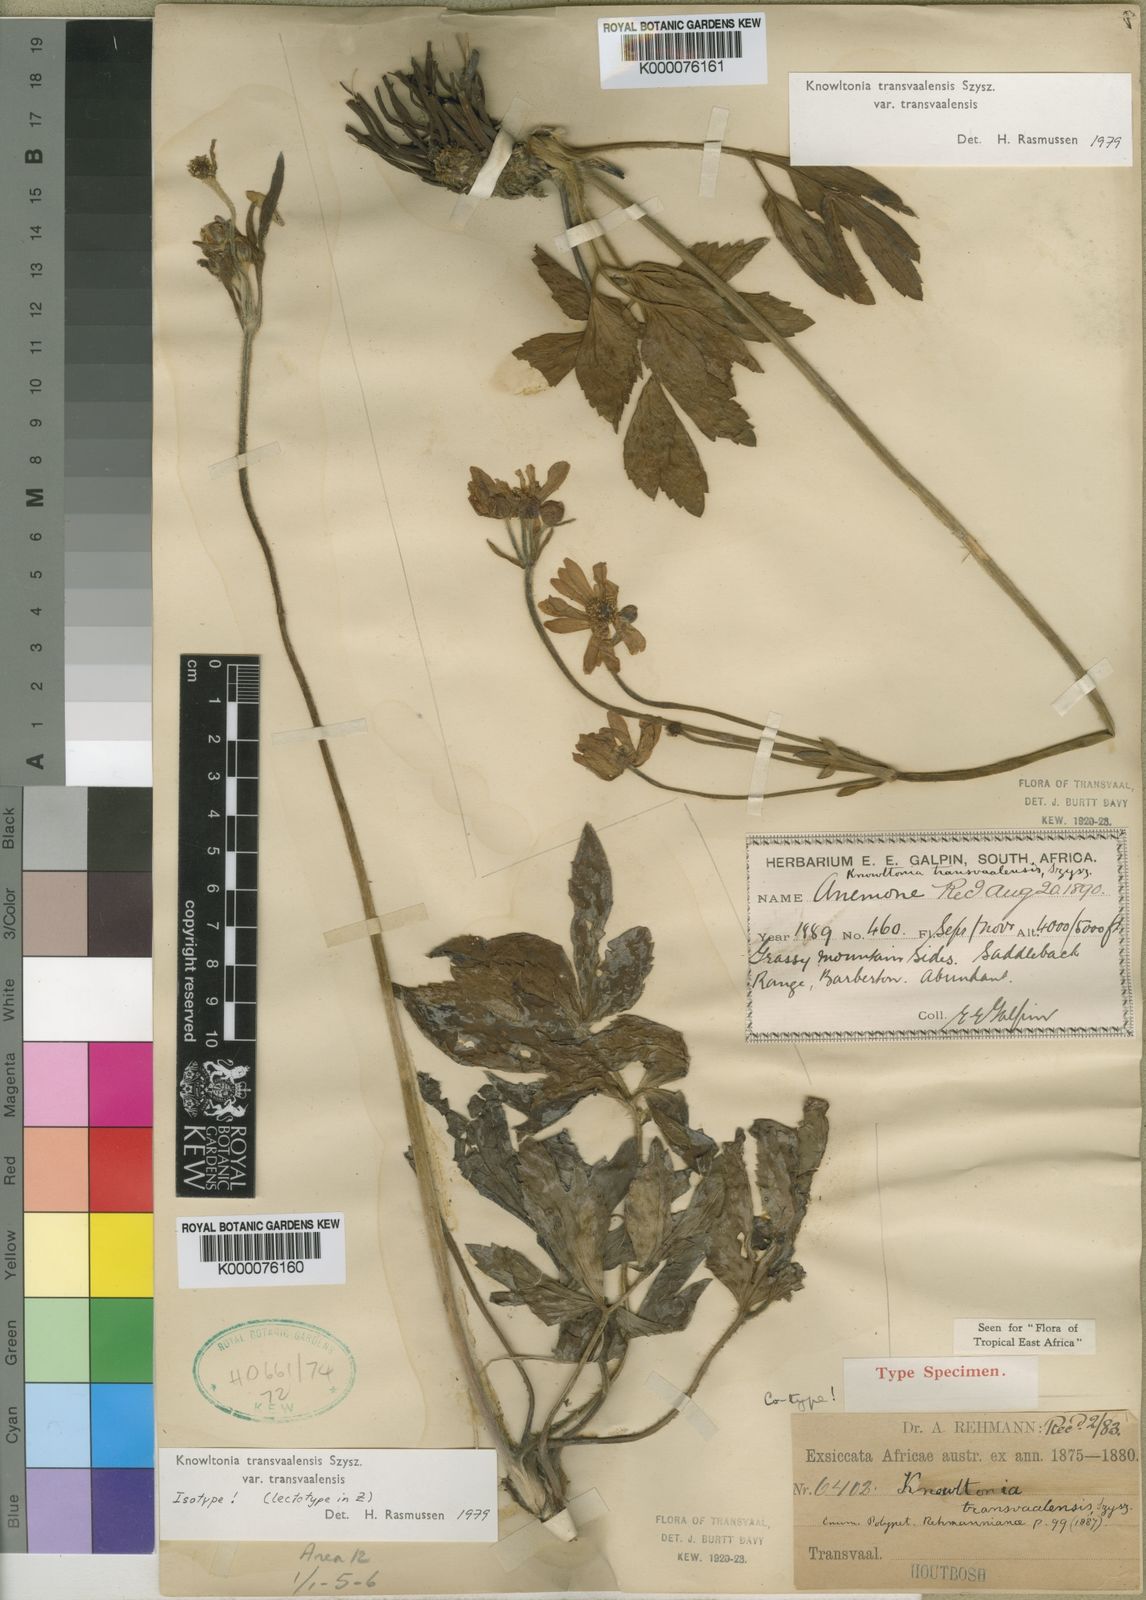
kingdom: Plantae
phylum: Tracheophyta
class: Magnoliopsida
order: Ranunculales
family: Ranunculaceae
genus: Knowltonia
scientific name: Knowltonia transvaalensis
